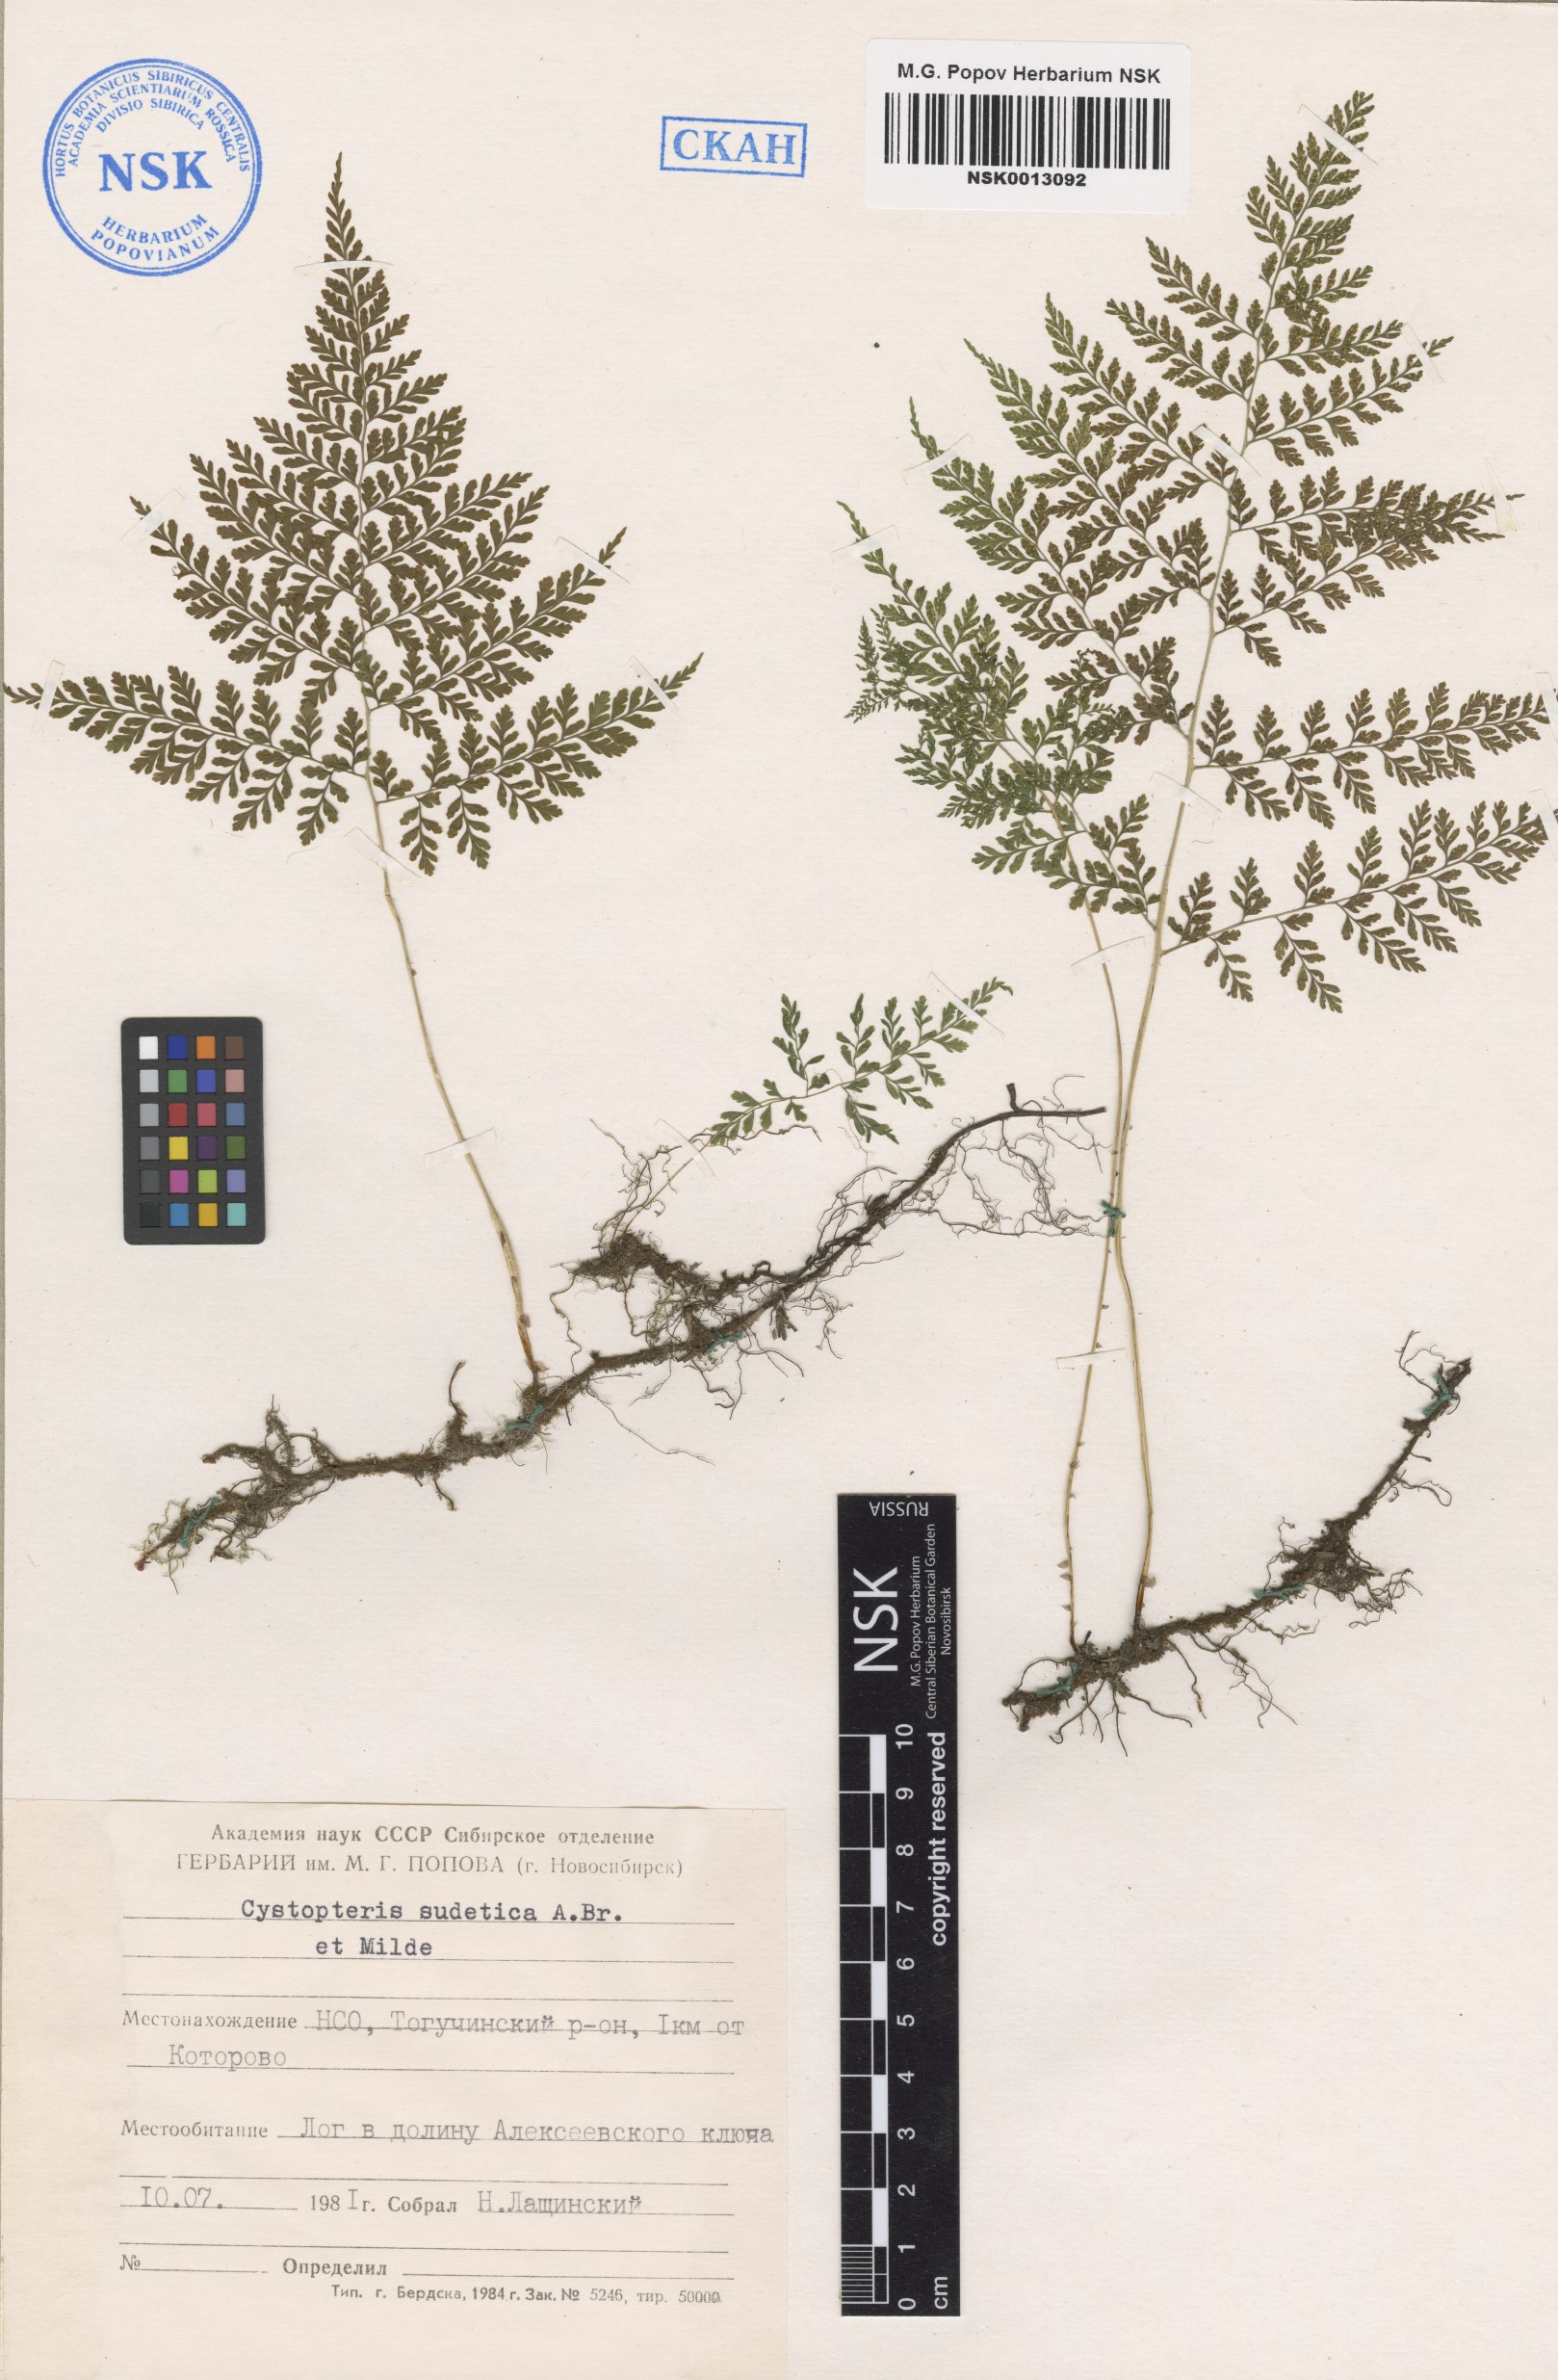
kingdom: Plantae
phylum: Tracheophyta
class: Polypodiopsida
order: Polypodiales
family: Cystopteridaceae
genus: Cystopteris
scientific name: Cystopteris sudetica
